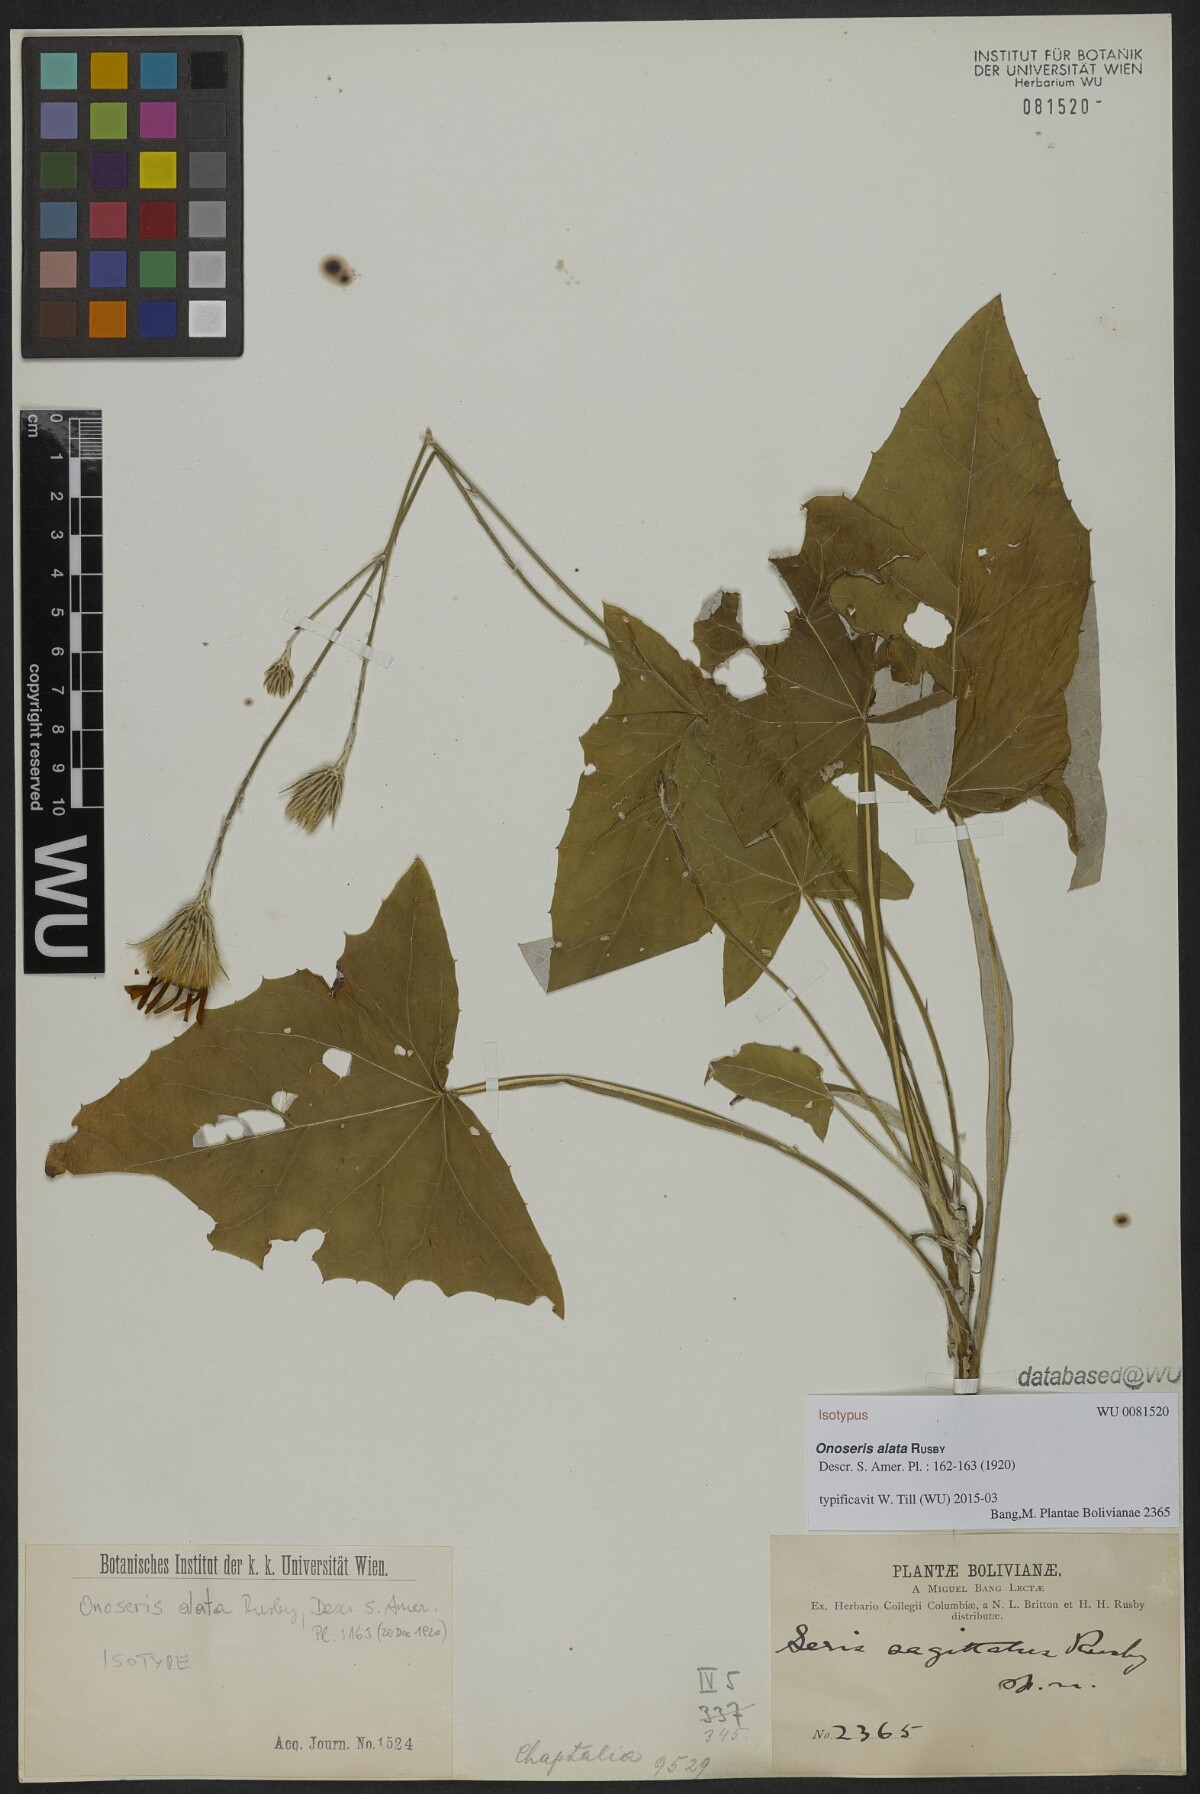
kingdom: Plantae
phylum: Tracheophyta
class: Magnoliopsida
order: Asterales
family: Asteraceae
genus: Onoseris
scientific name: Onoseris alata
